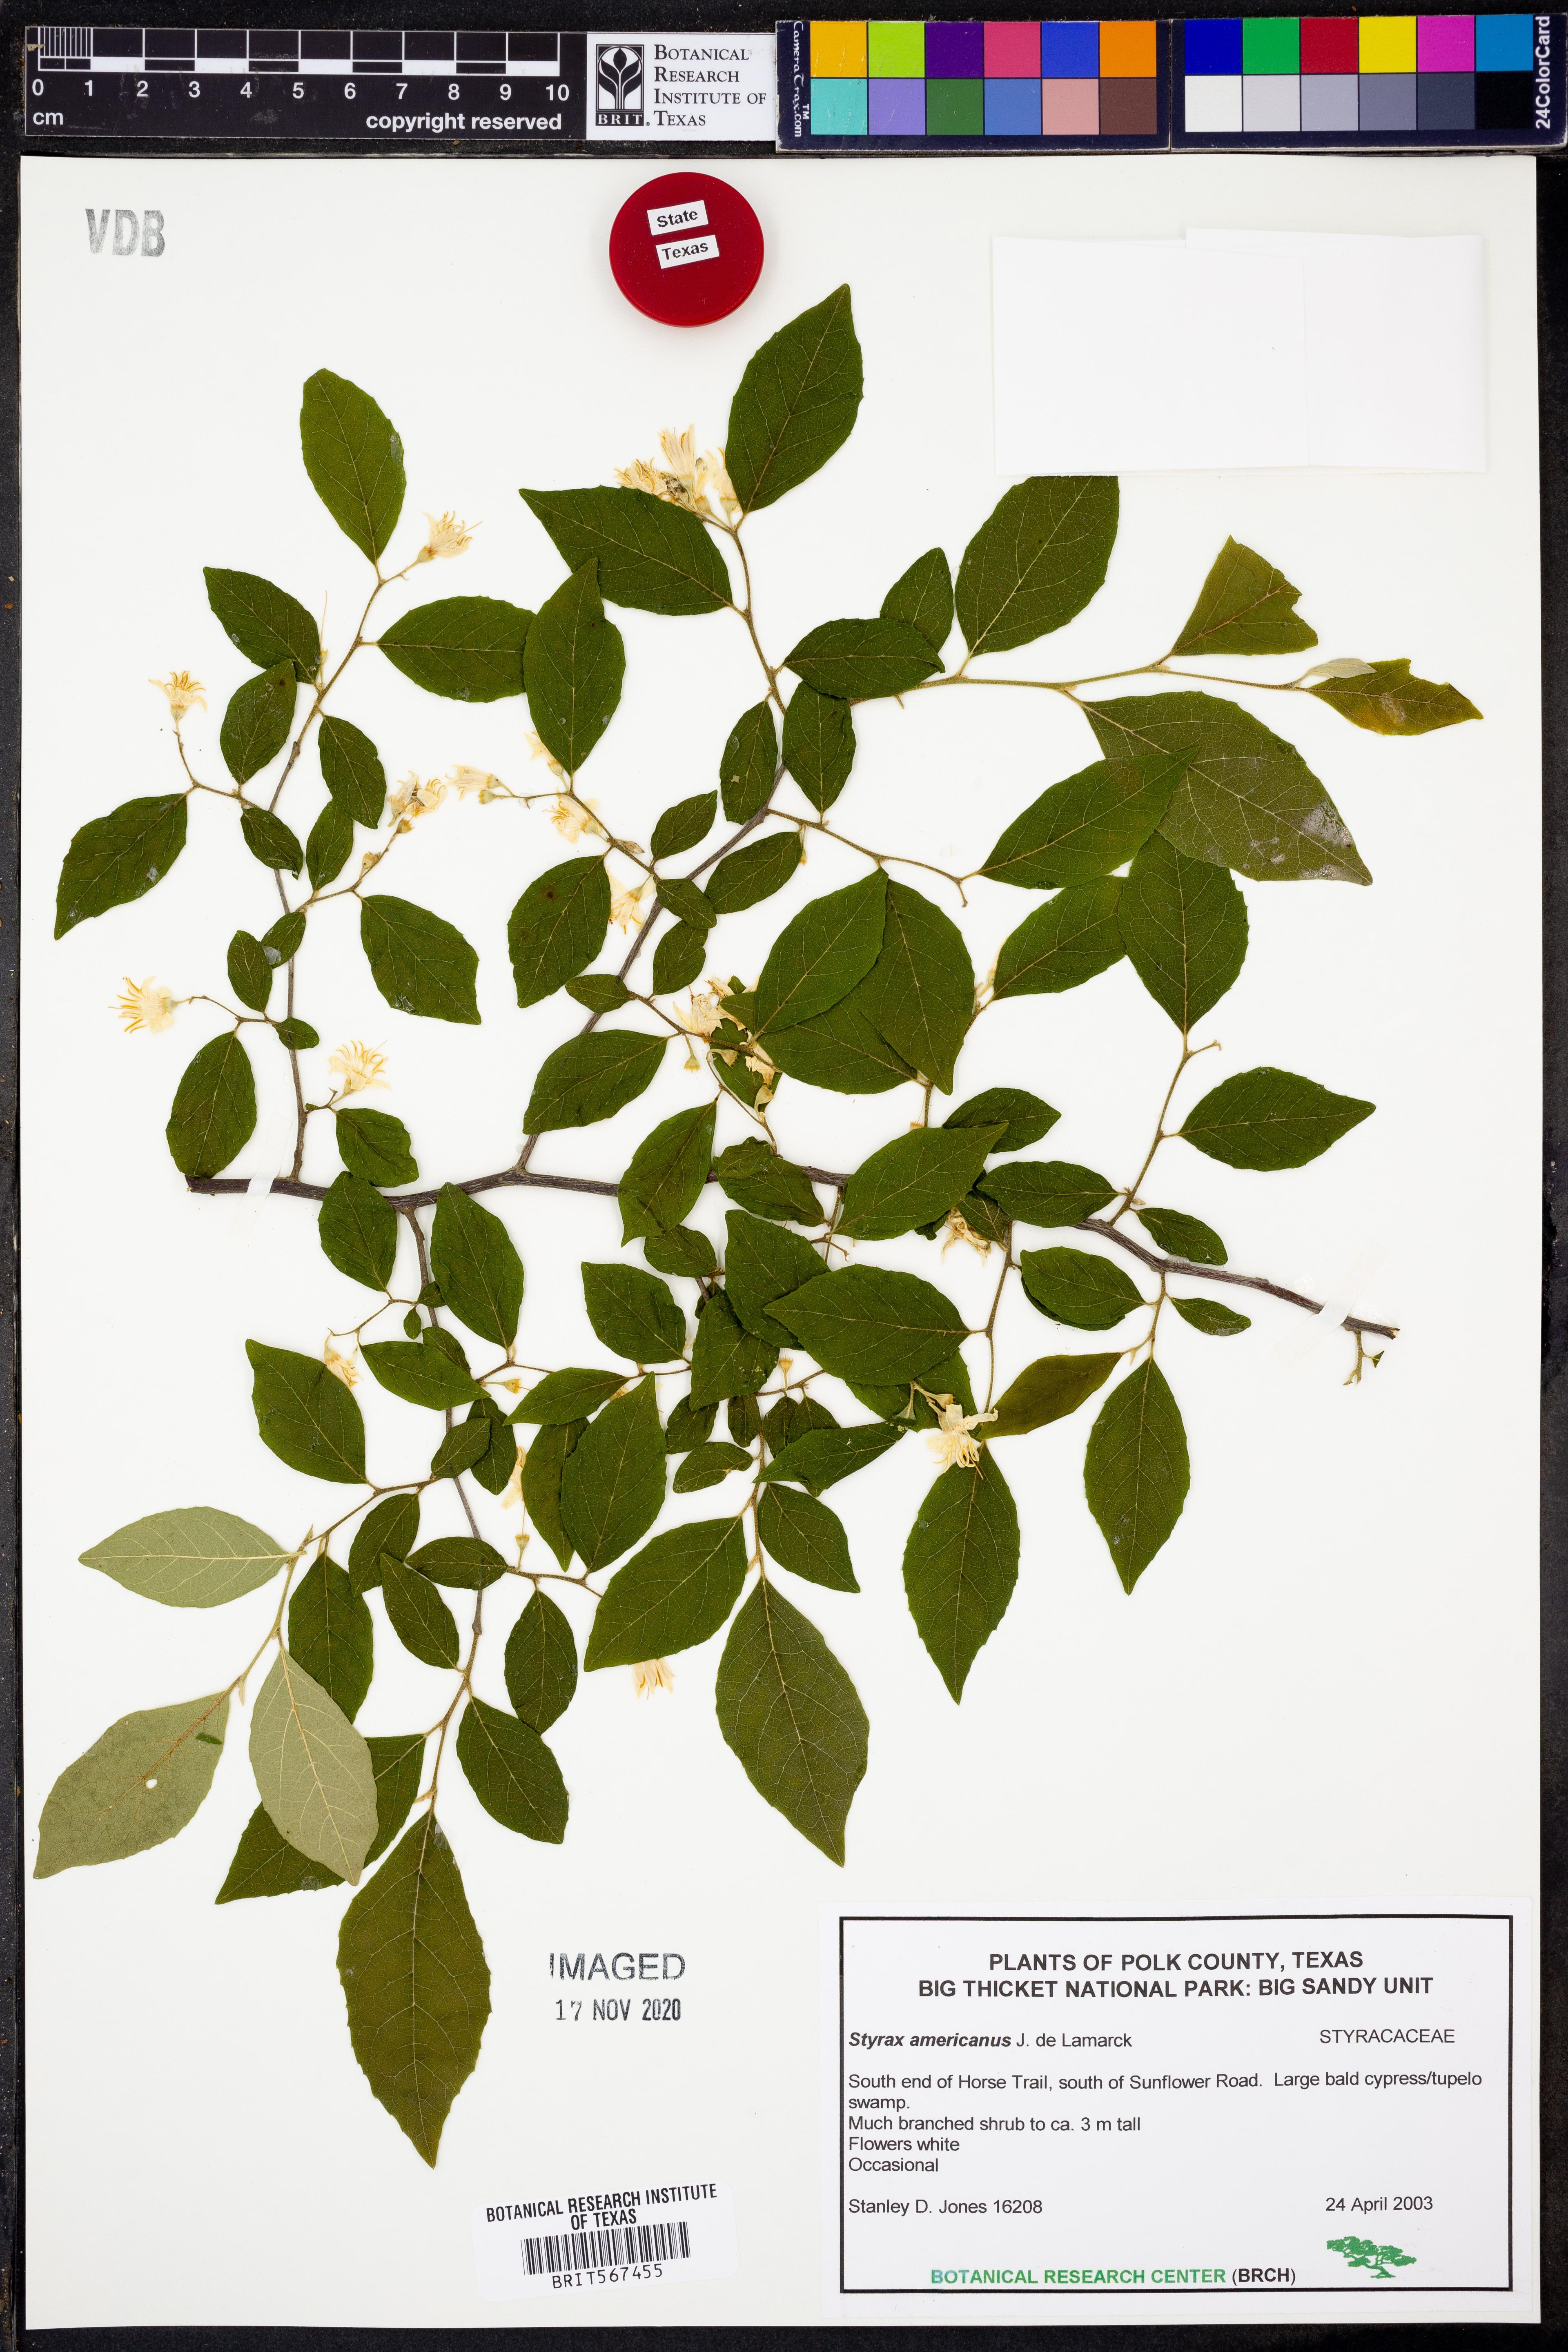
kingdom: Plantae
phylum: Tracheophyta
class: Magnoliopsida
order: Ericales
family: Styracaceae
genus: Styrax
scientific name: Styrax americanus
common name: American snowbell
